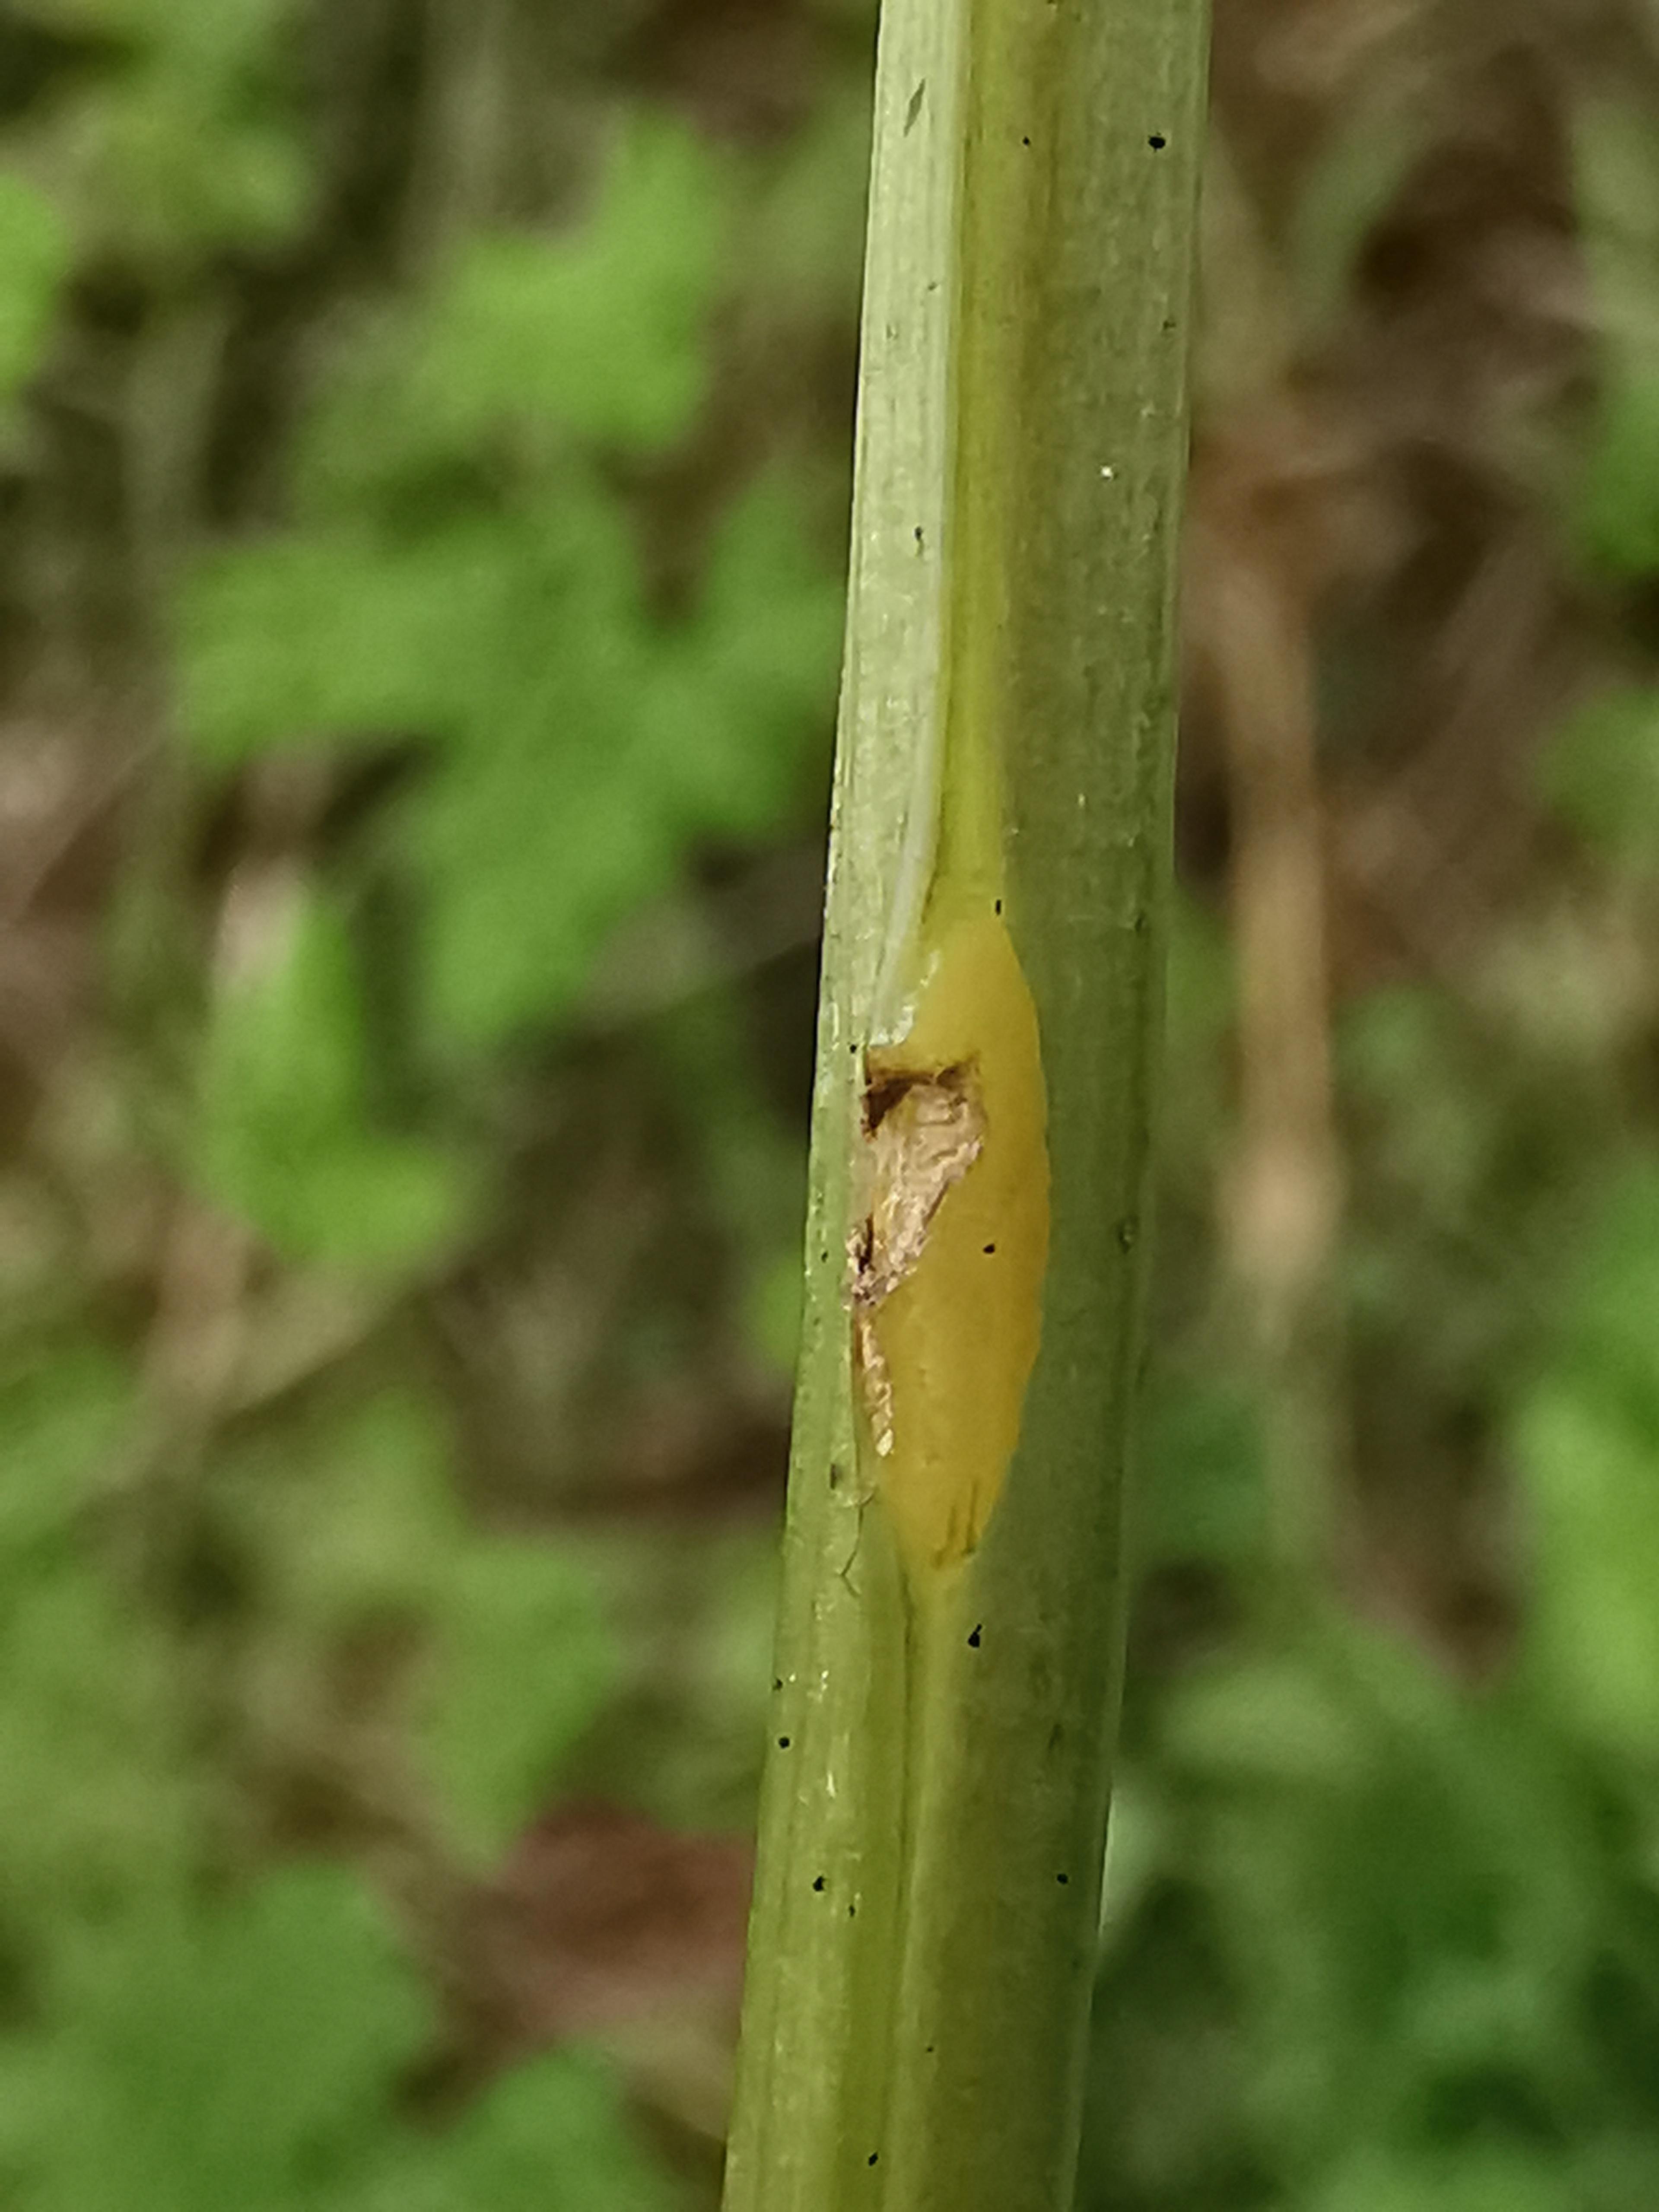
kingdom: Fungi
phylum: Ascomycota
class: Taphrinomycetes
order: Taphrinales
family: Taphrinaceae
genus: Protomyces
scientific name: Protomyces macrosporus
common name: skvalderkål-vablesæk
